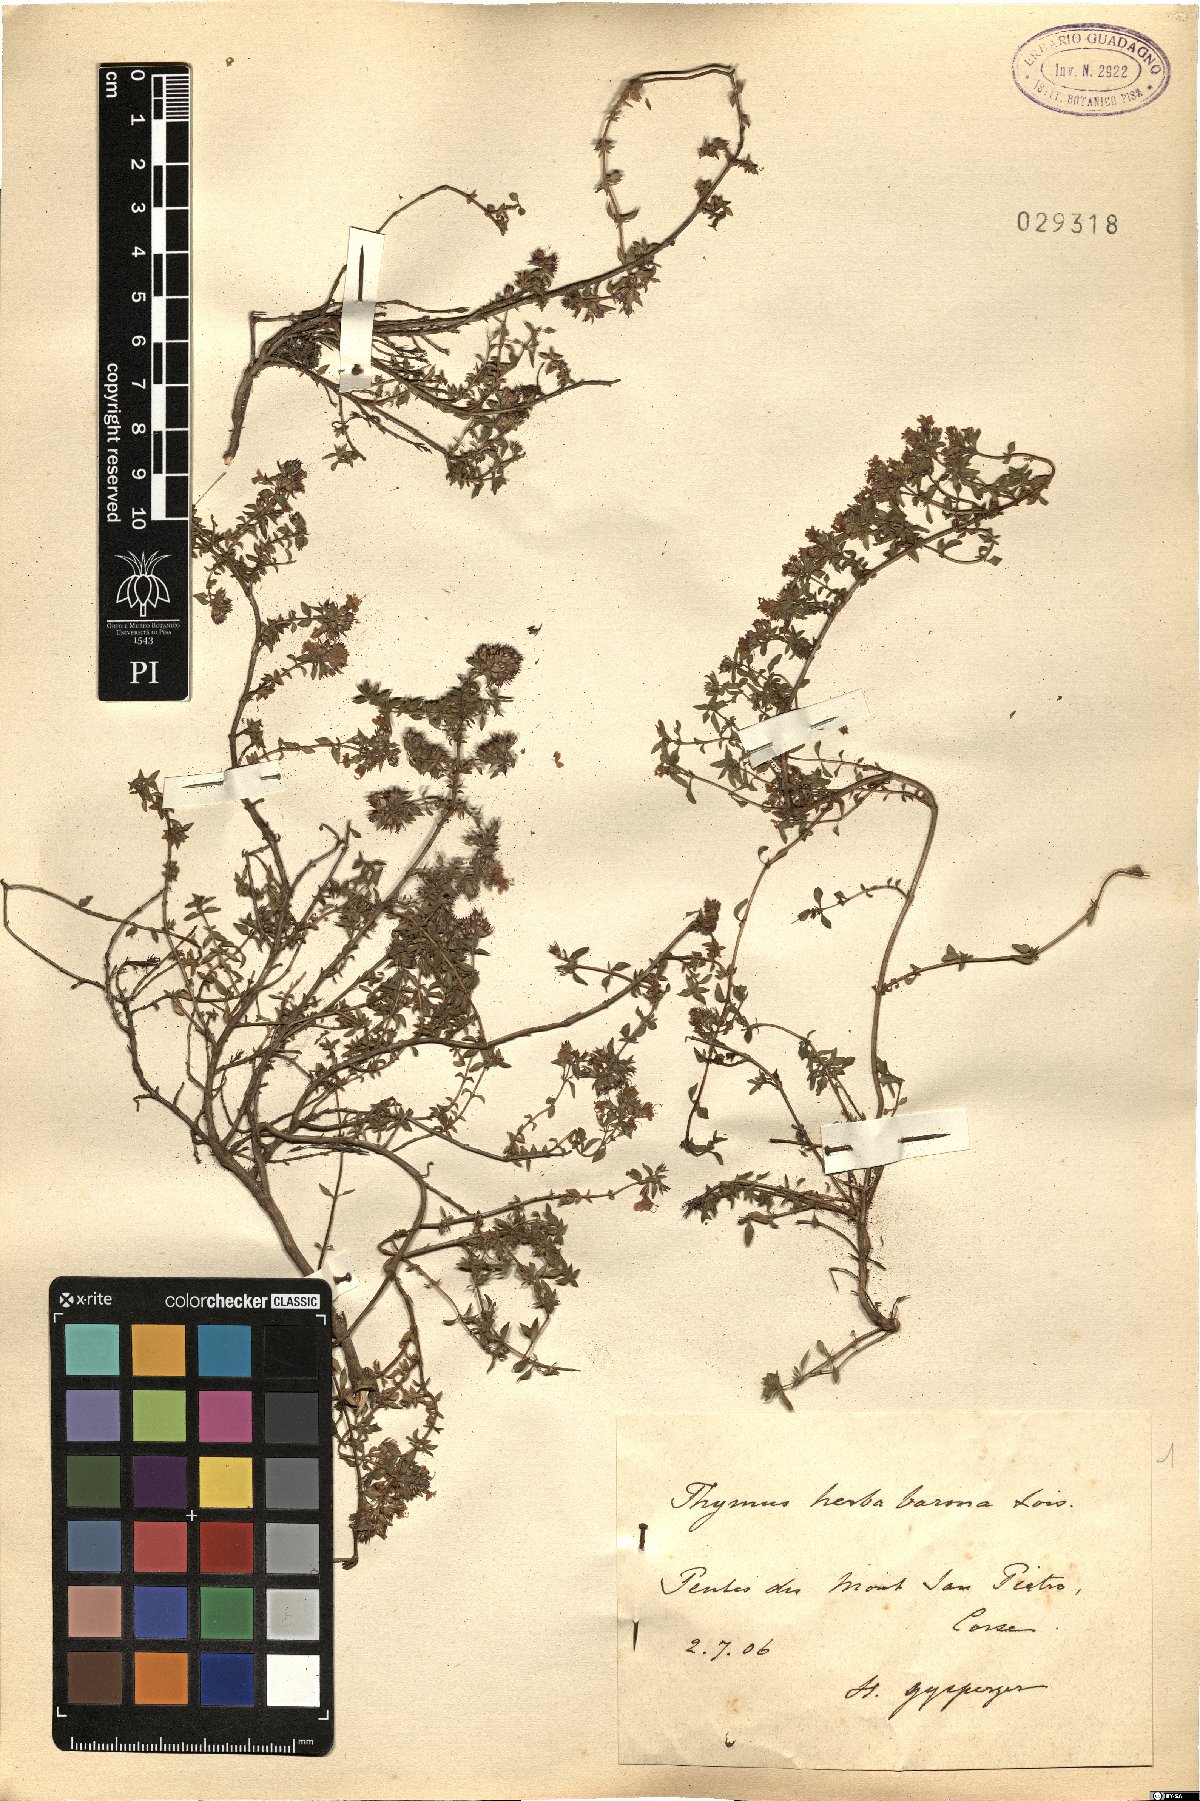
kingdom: Plantae
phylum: Tracheophyta
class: Magnoliopsida
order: Lamiales
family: Lamiaceae
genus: Thymus
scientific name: Thymus herba-barona
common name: Caraway thyme
